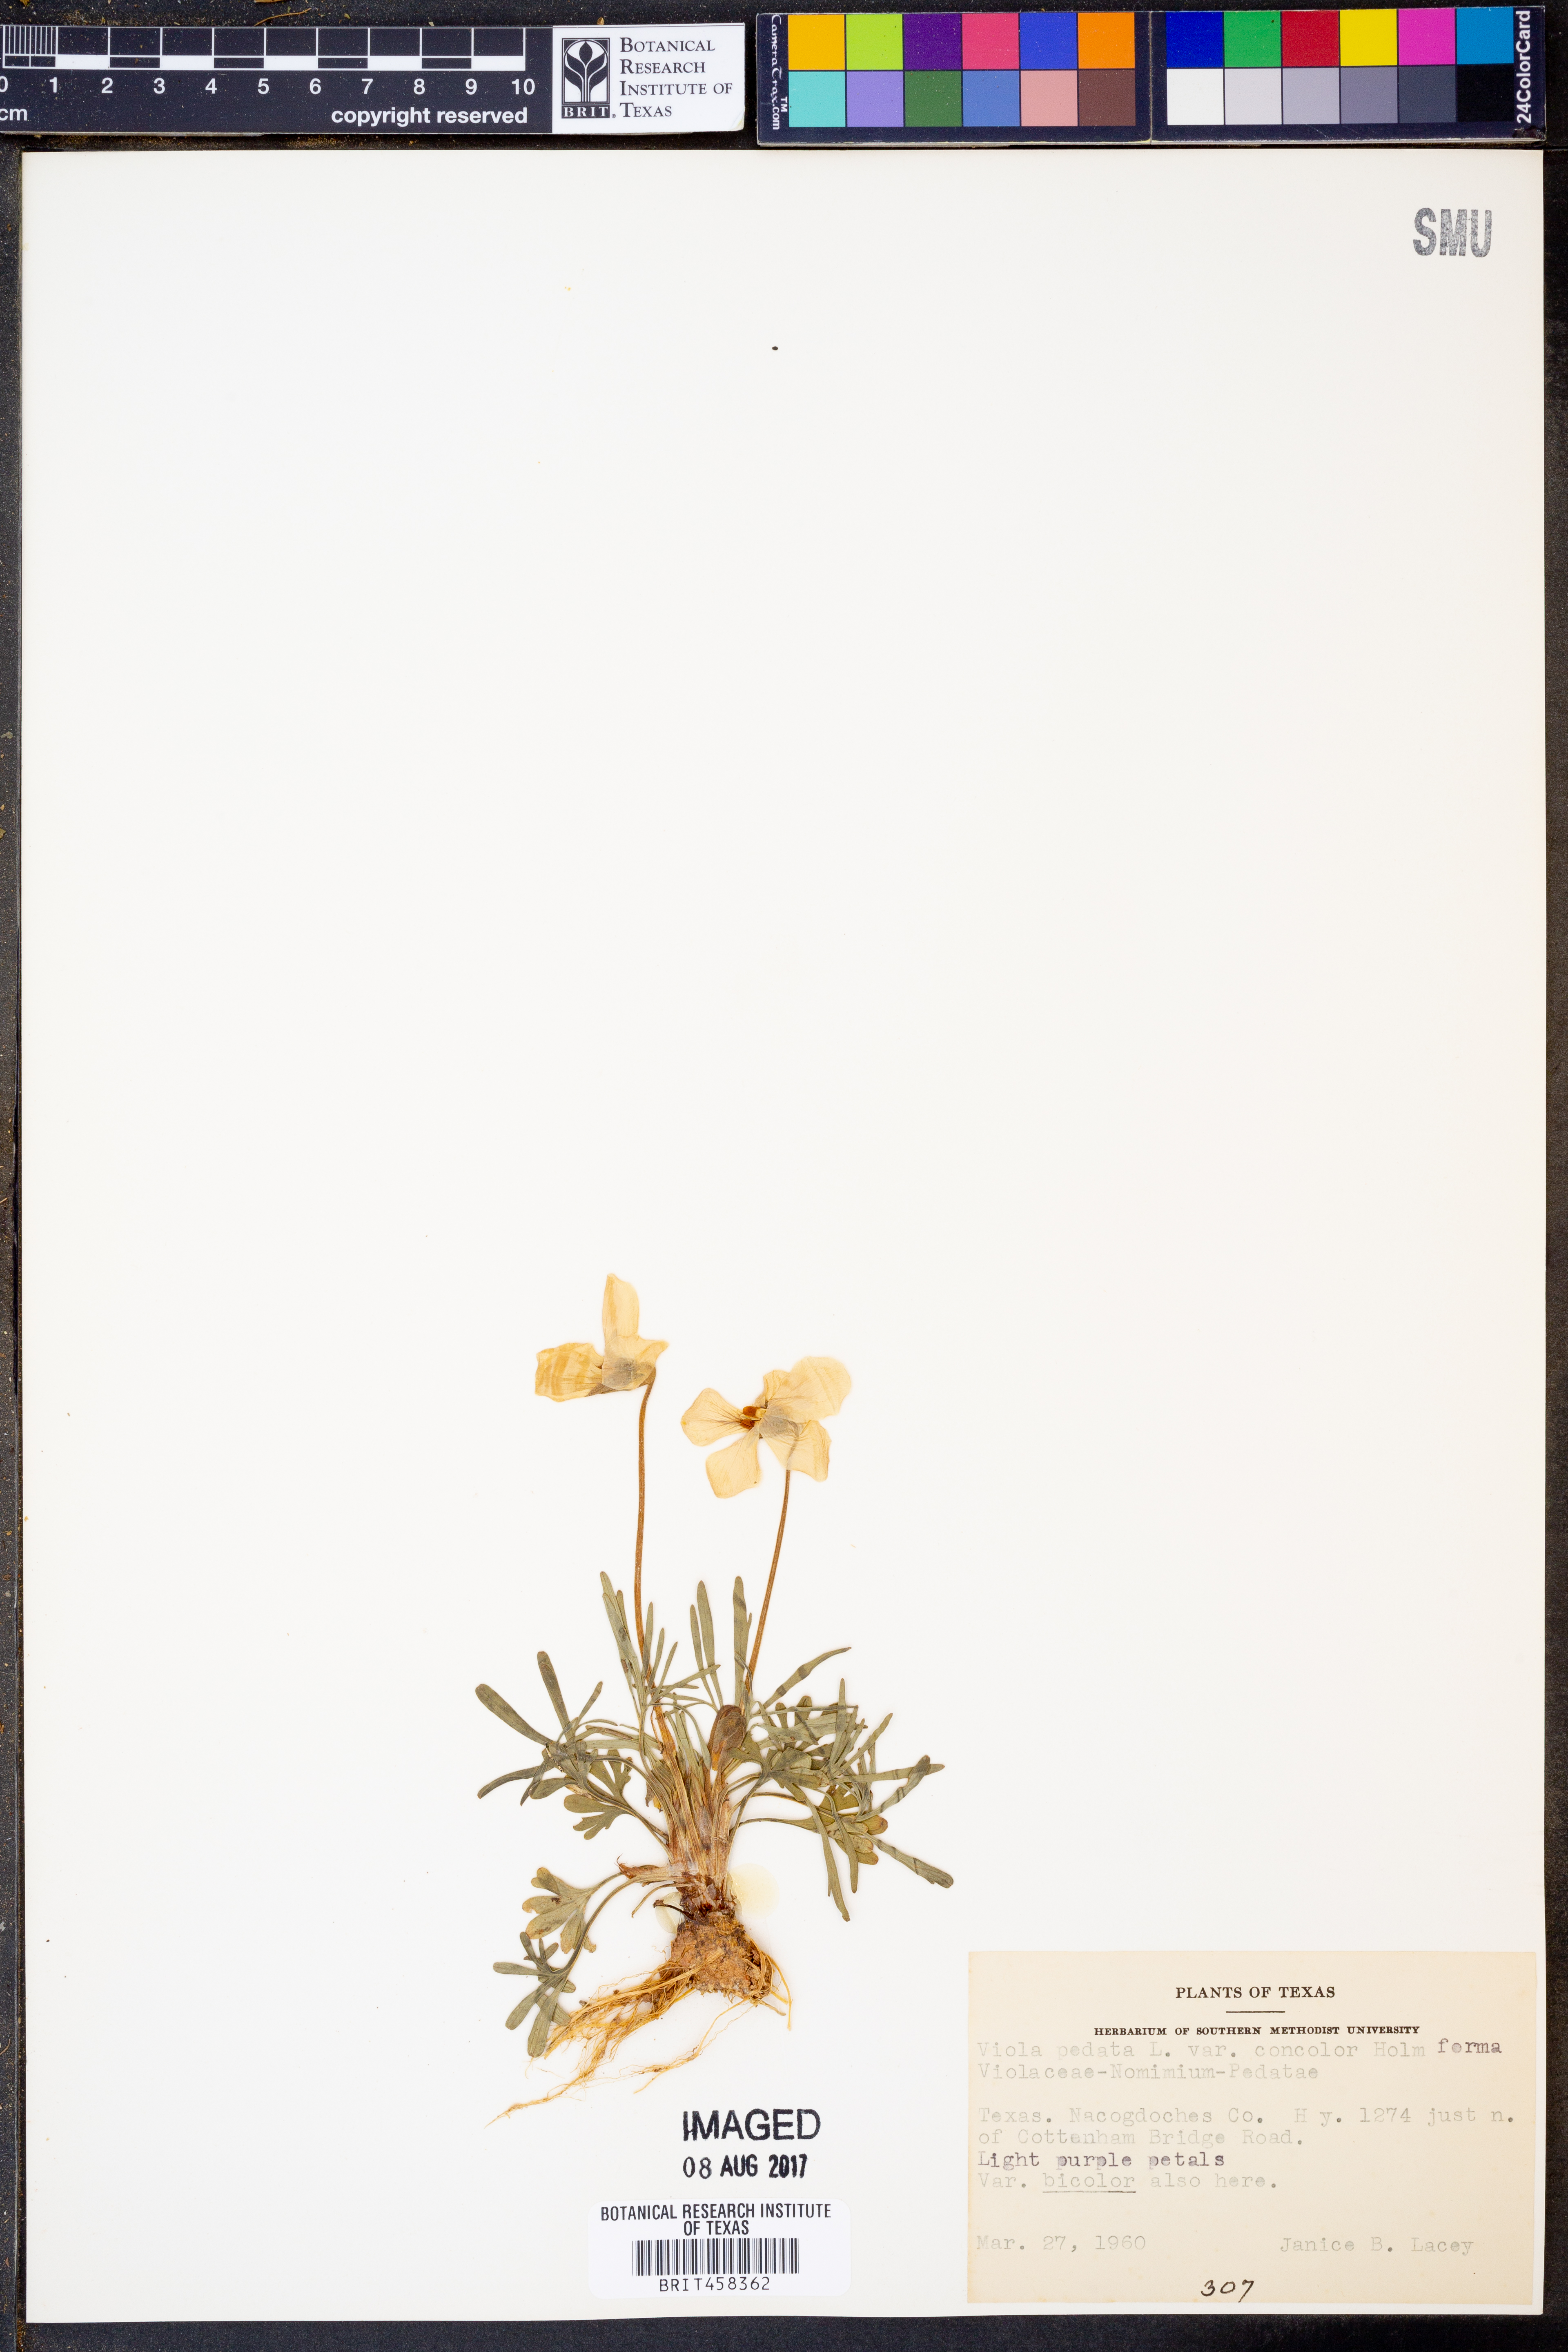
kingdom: Plantae
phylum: Tracheophyta
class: Magnoliopsida
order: Malpighiales
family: Violaceae
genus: Viola
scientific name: Viola pedata
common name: Pansy violet
